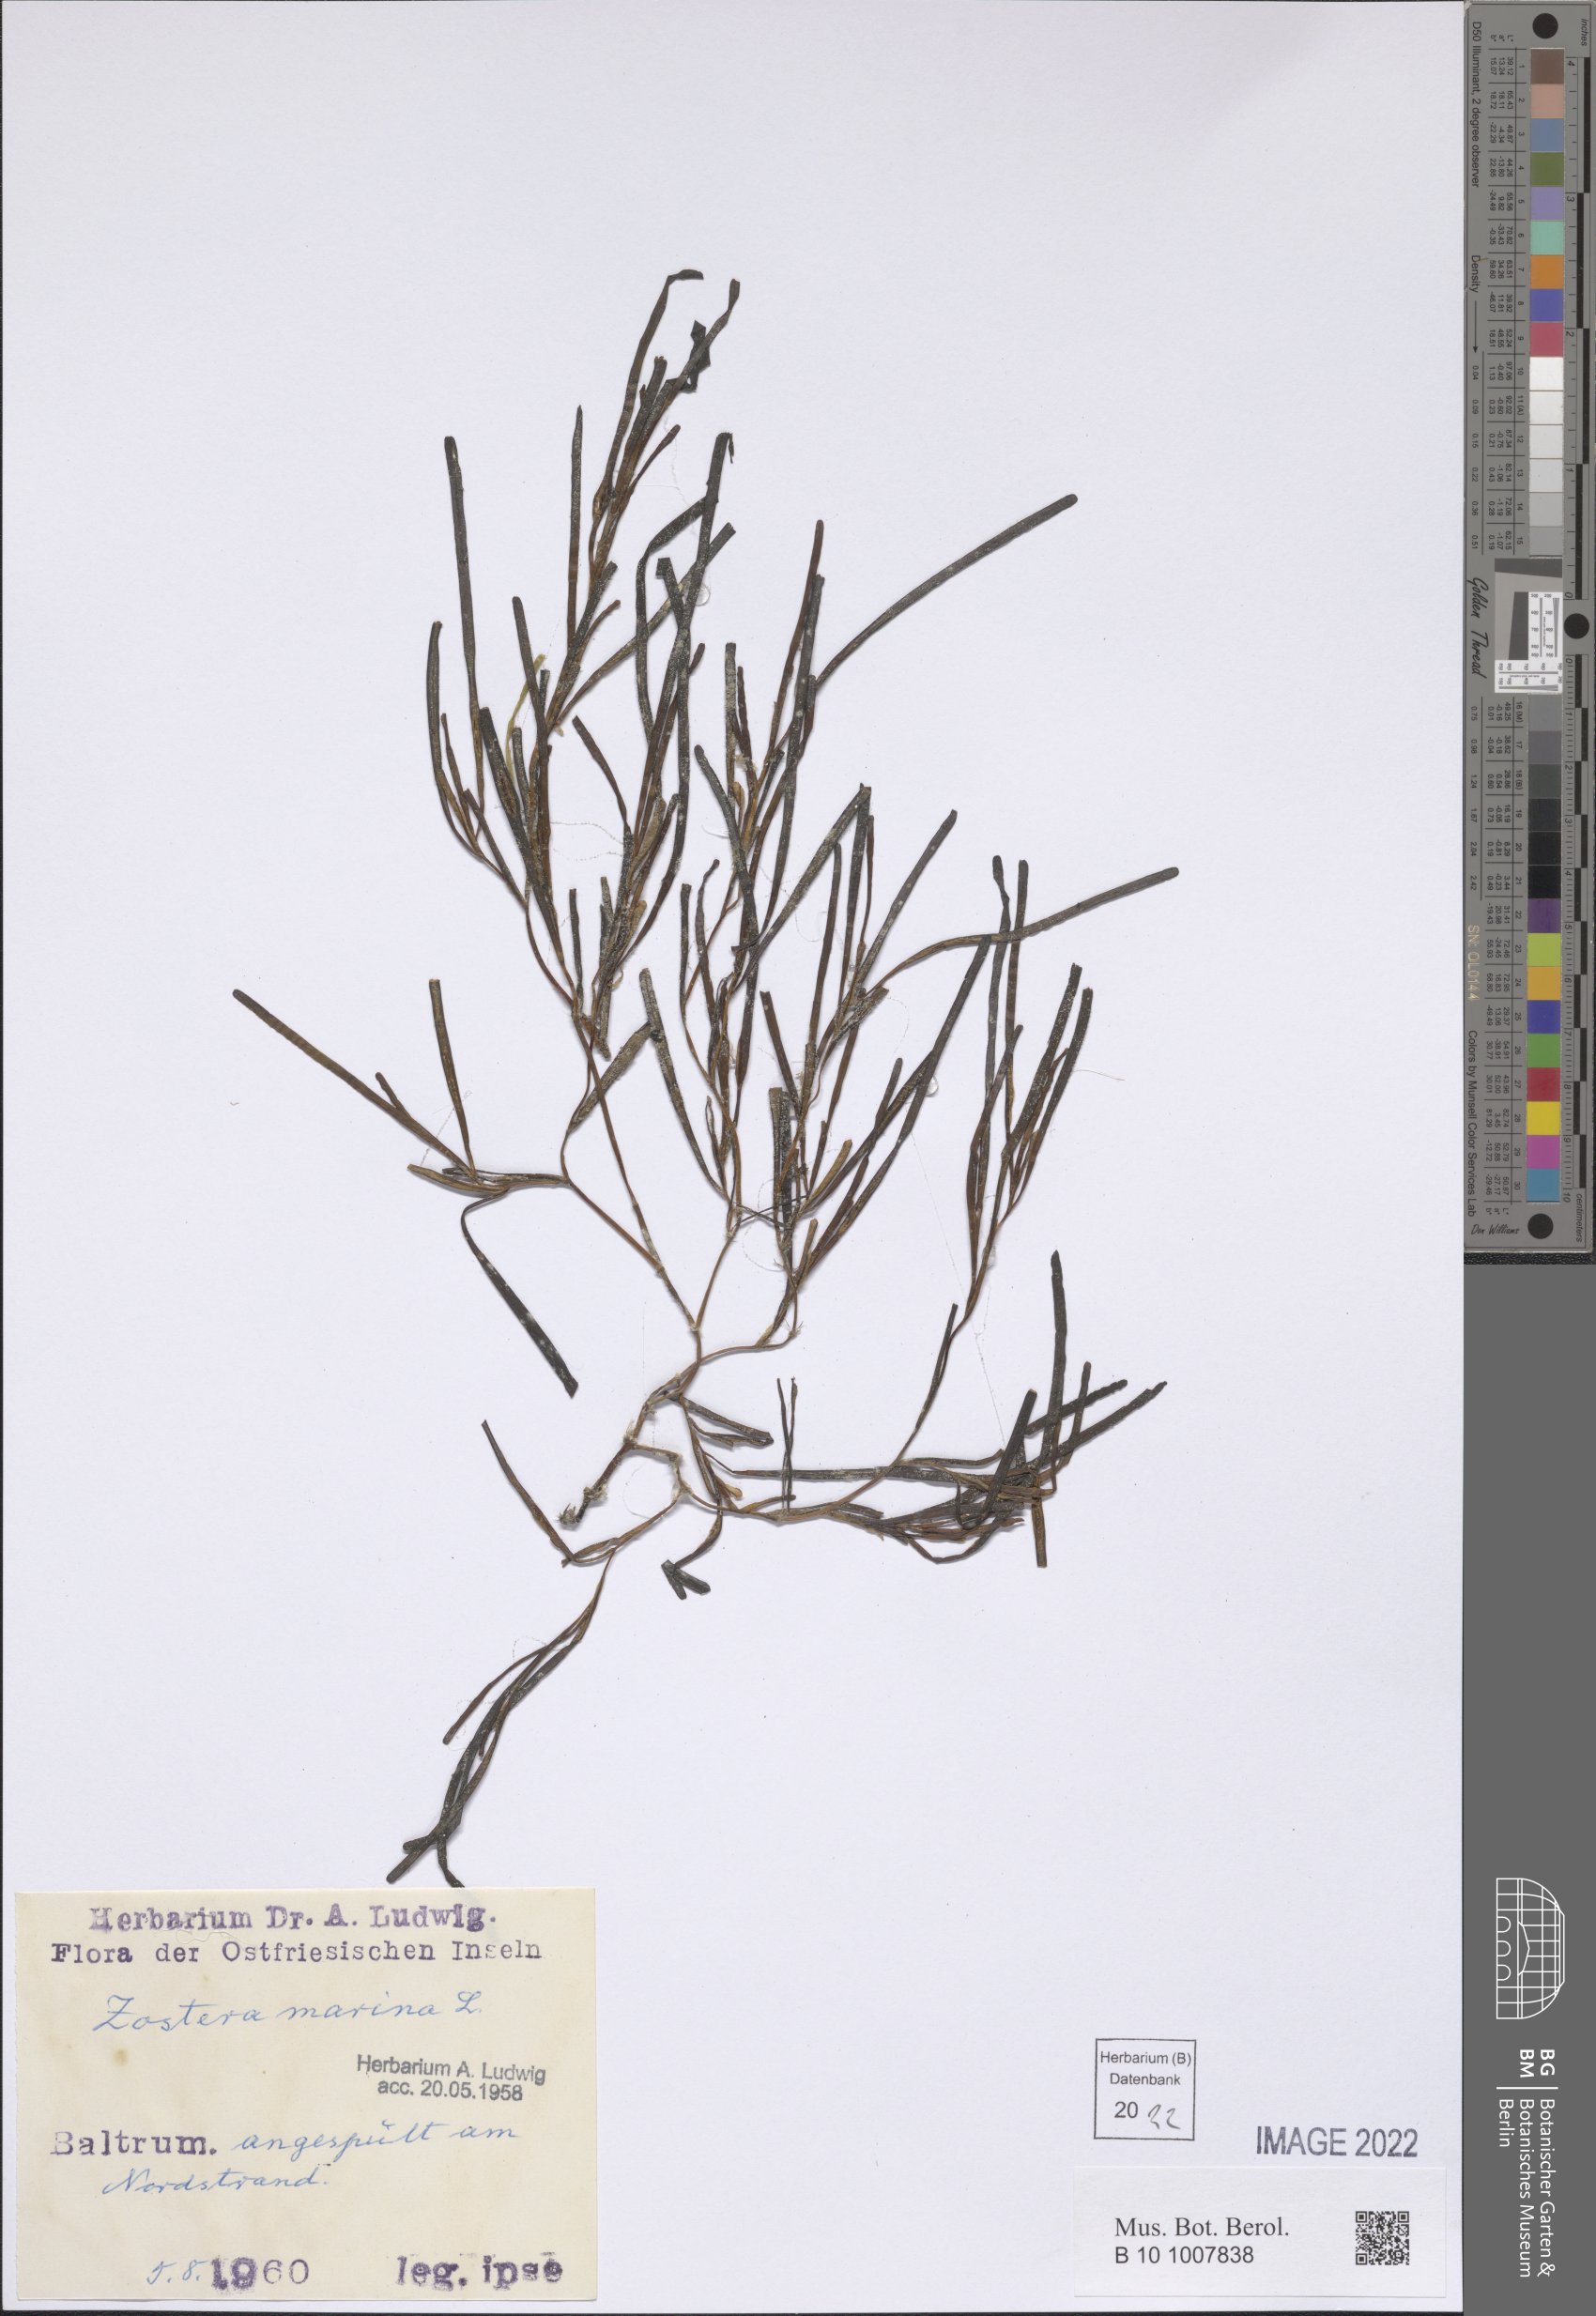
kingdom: Plantae
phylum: Tracheophyta
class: Liliopsida
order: Alismatales
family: Zosteraceae
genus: Zostera
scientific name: Zostera marina
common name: Eelgrass
